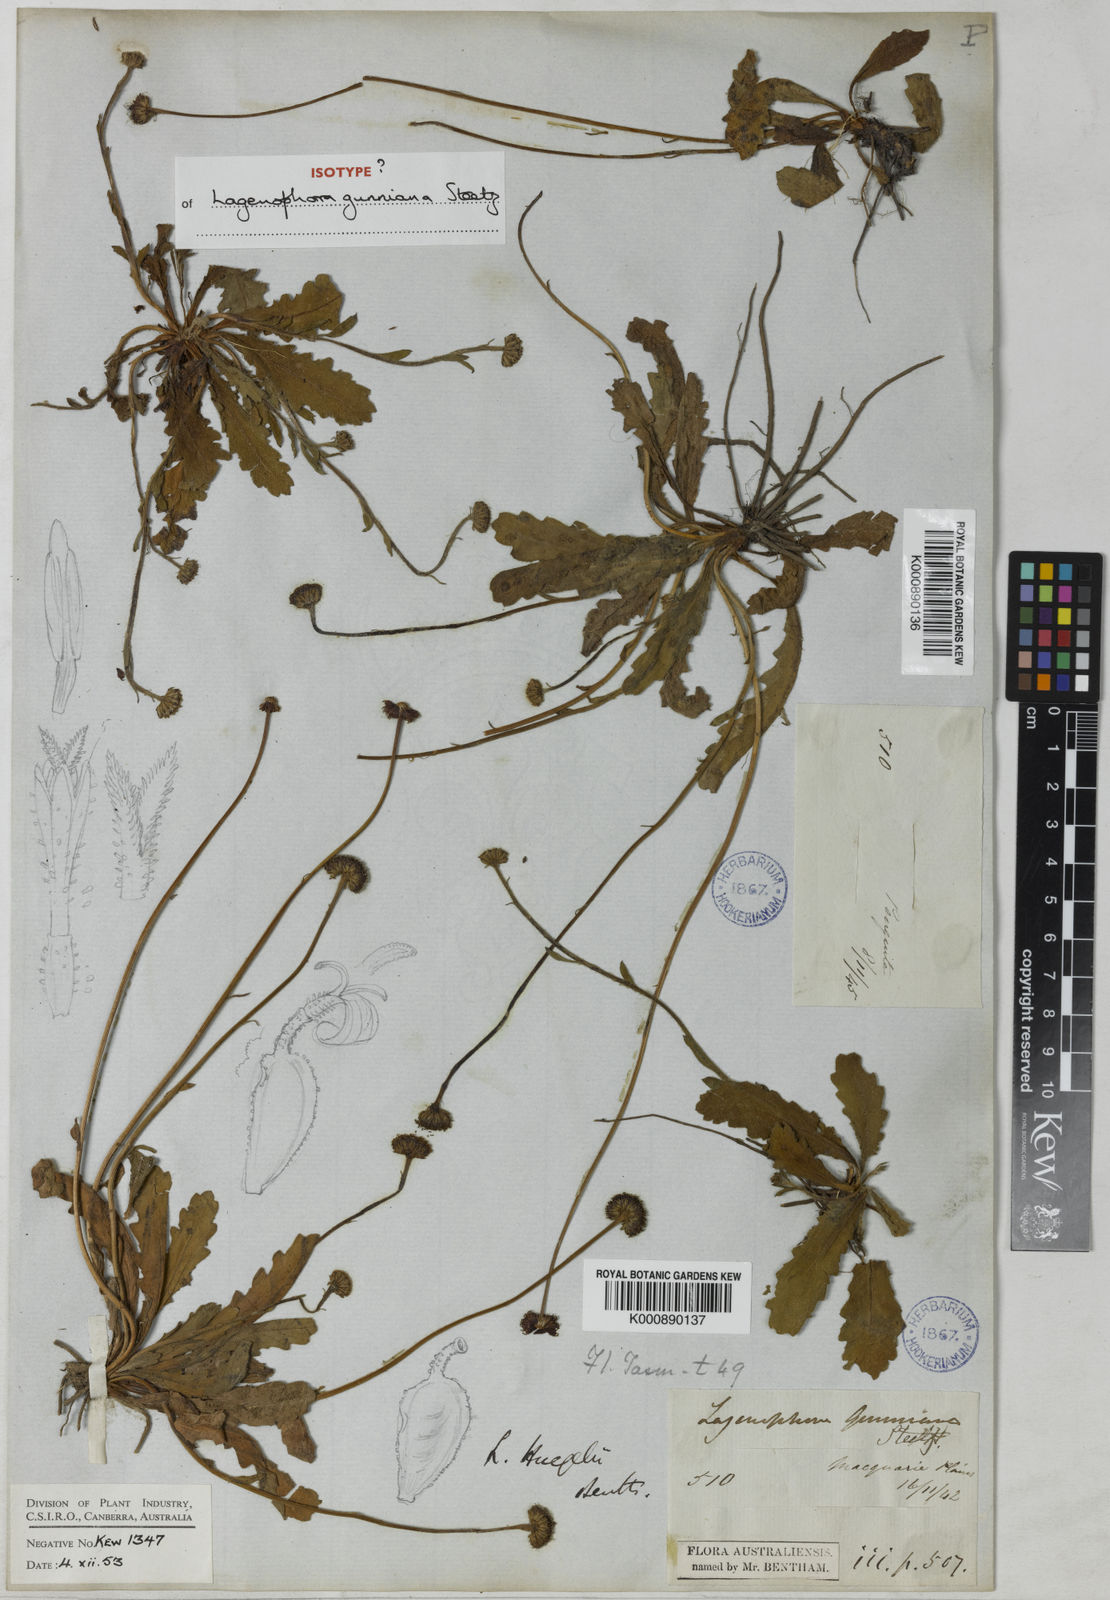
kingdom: Plantae
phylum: Tracheophyta
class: Magnoliopsida
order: Asterales
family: Asteraceae
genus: Lagenophora
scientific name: Lagenophora
